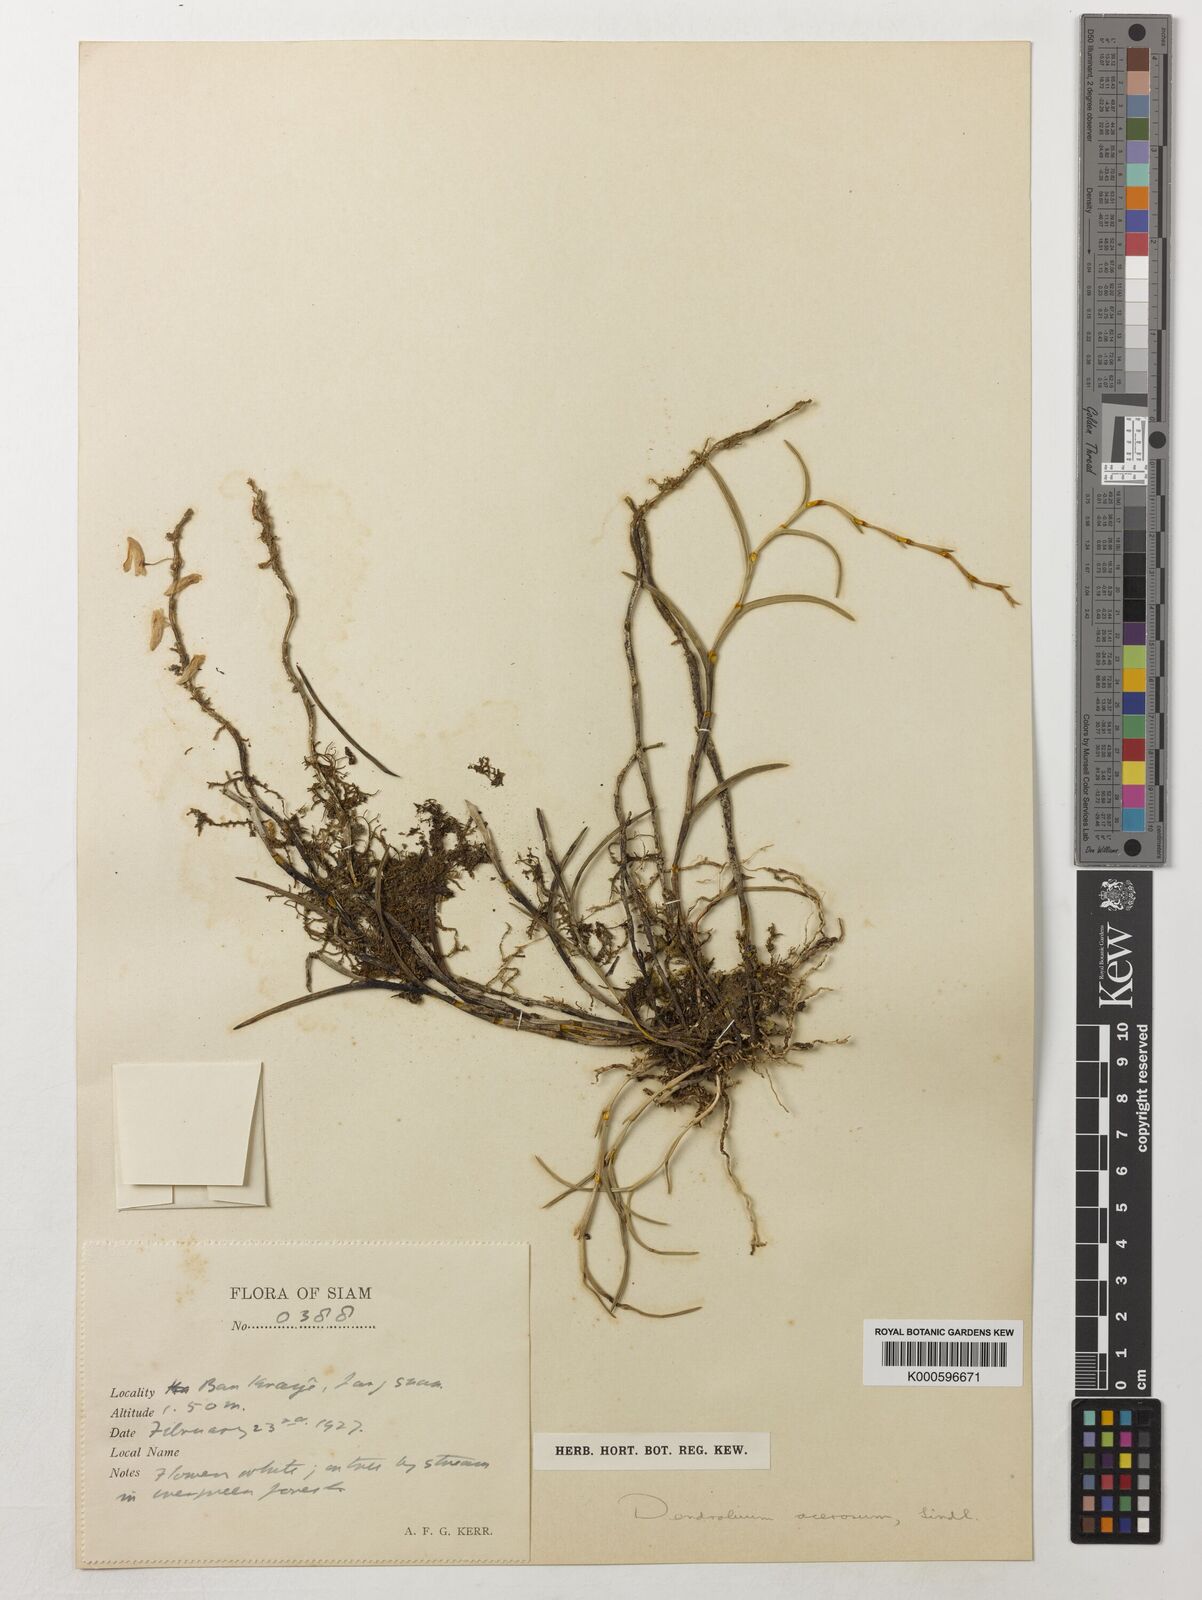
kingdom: Plantae
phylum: Tracheophyta
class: Liliopsida
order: Asparagales
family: Orchidaceae
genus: Dendrobium
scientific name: Dendrobium acerosum
